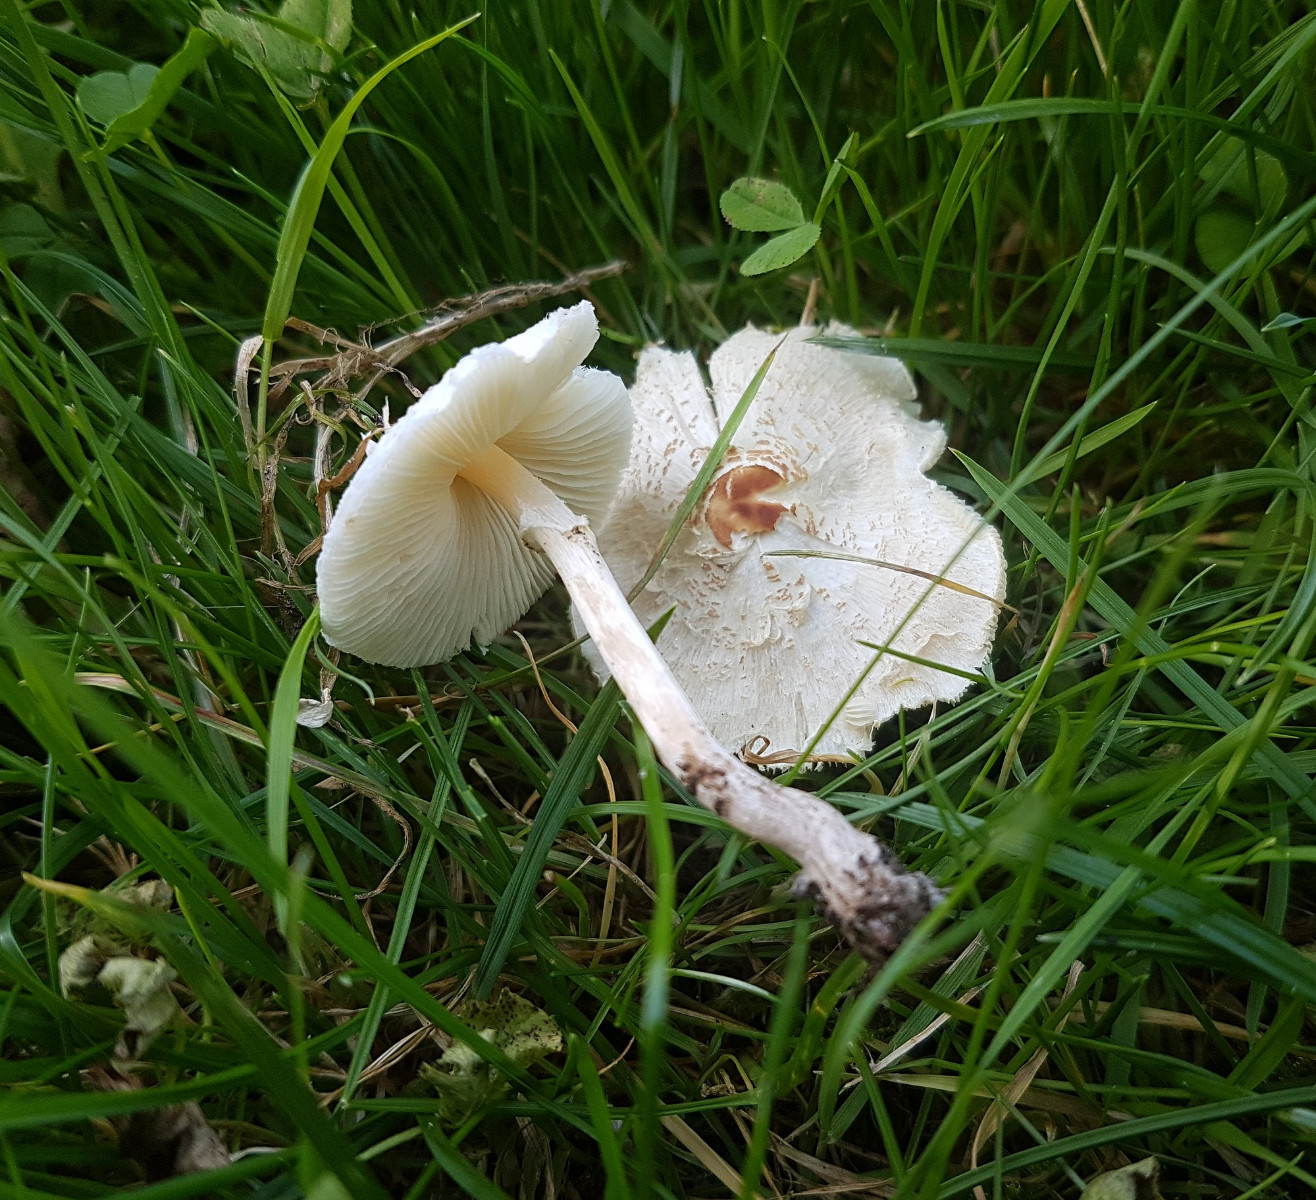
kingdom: Fungi
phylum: Basidiomycota
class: Agaricomycetes
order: Agaricales
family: Agaricaceae
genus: Lepiota
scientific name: Lepiota cristata
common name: stinkende parasolhat
